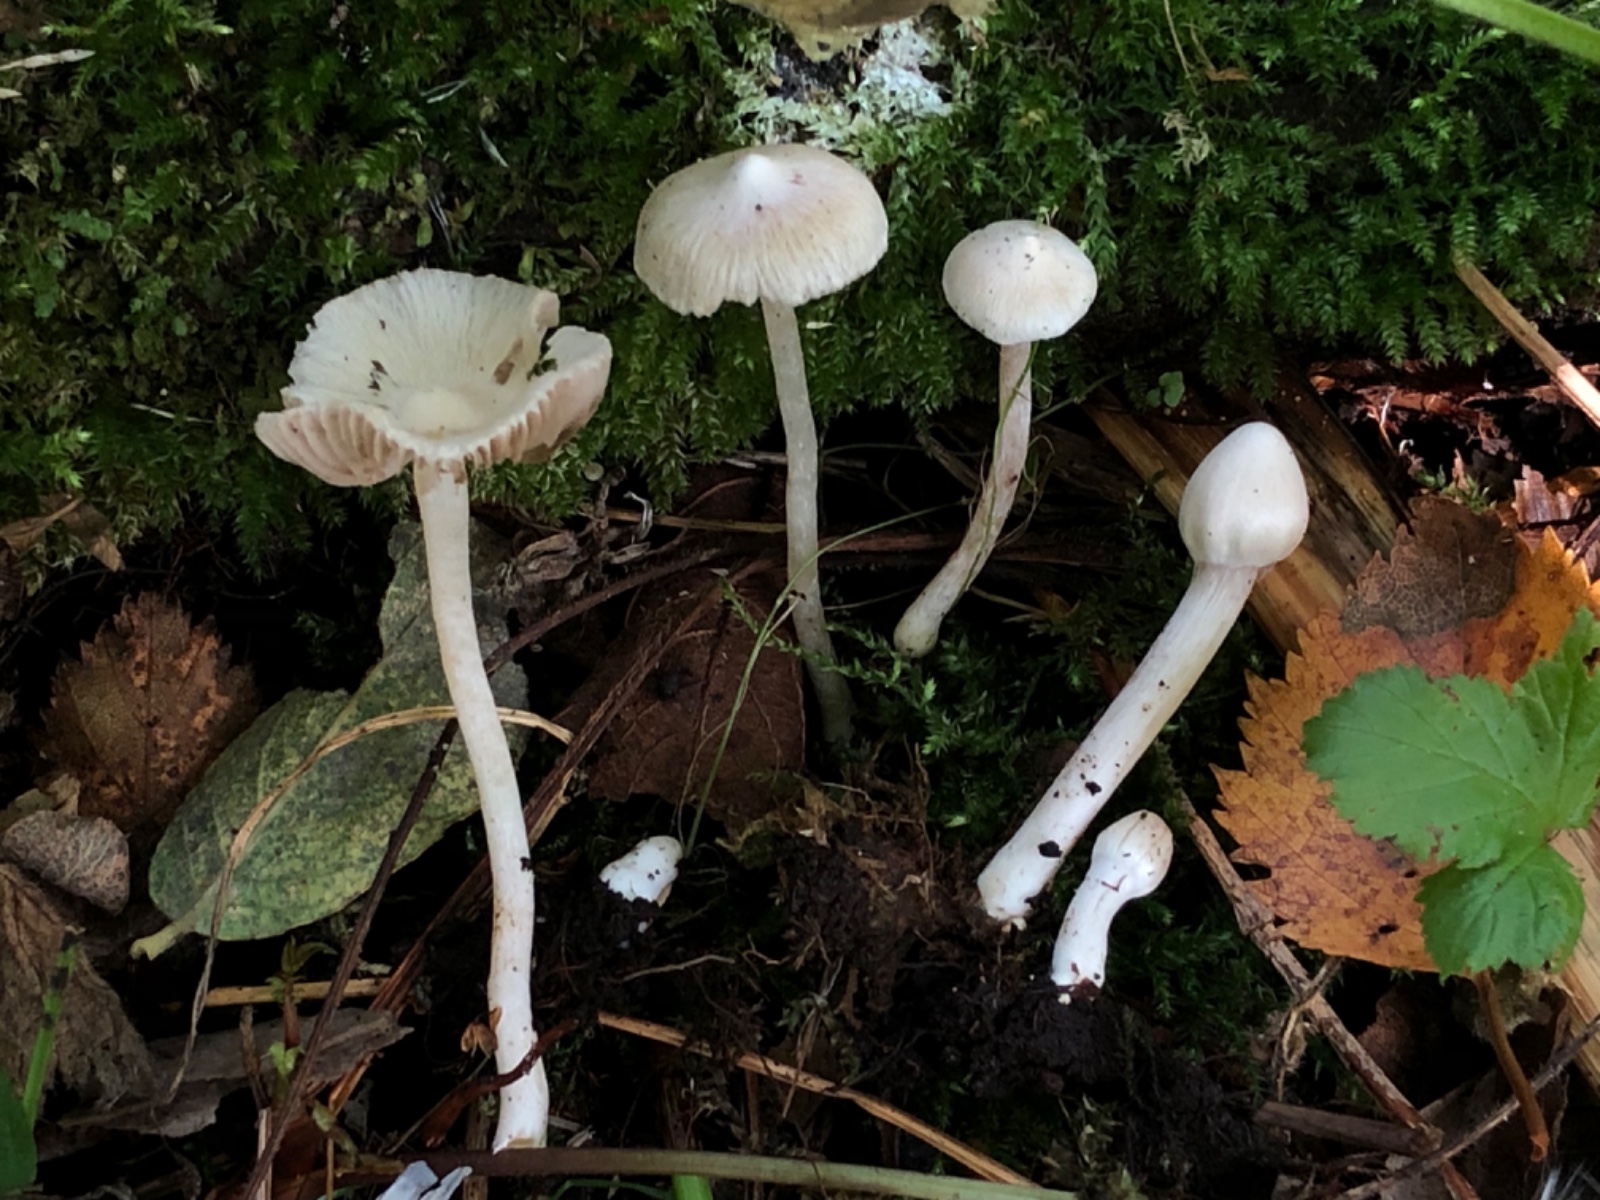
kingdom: Fungi
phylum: Basidiomycota
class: Agaricomycetes
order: Agaricales
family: Inocybaceae
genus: Inocybe
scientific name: Inocybe sambucella
